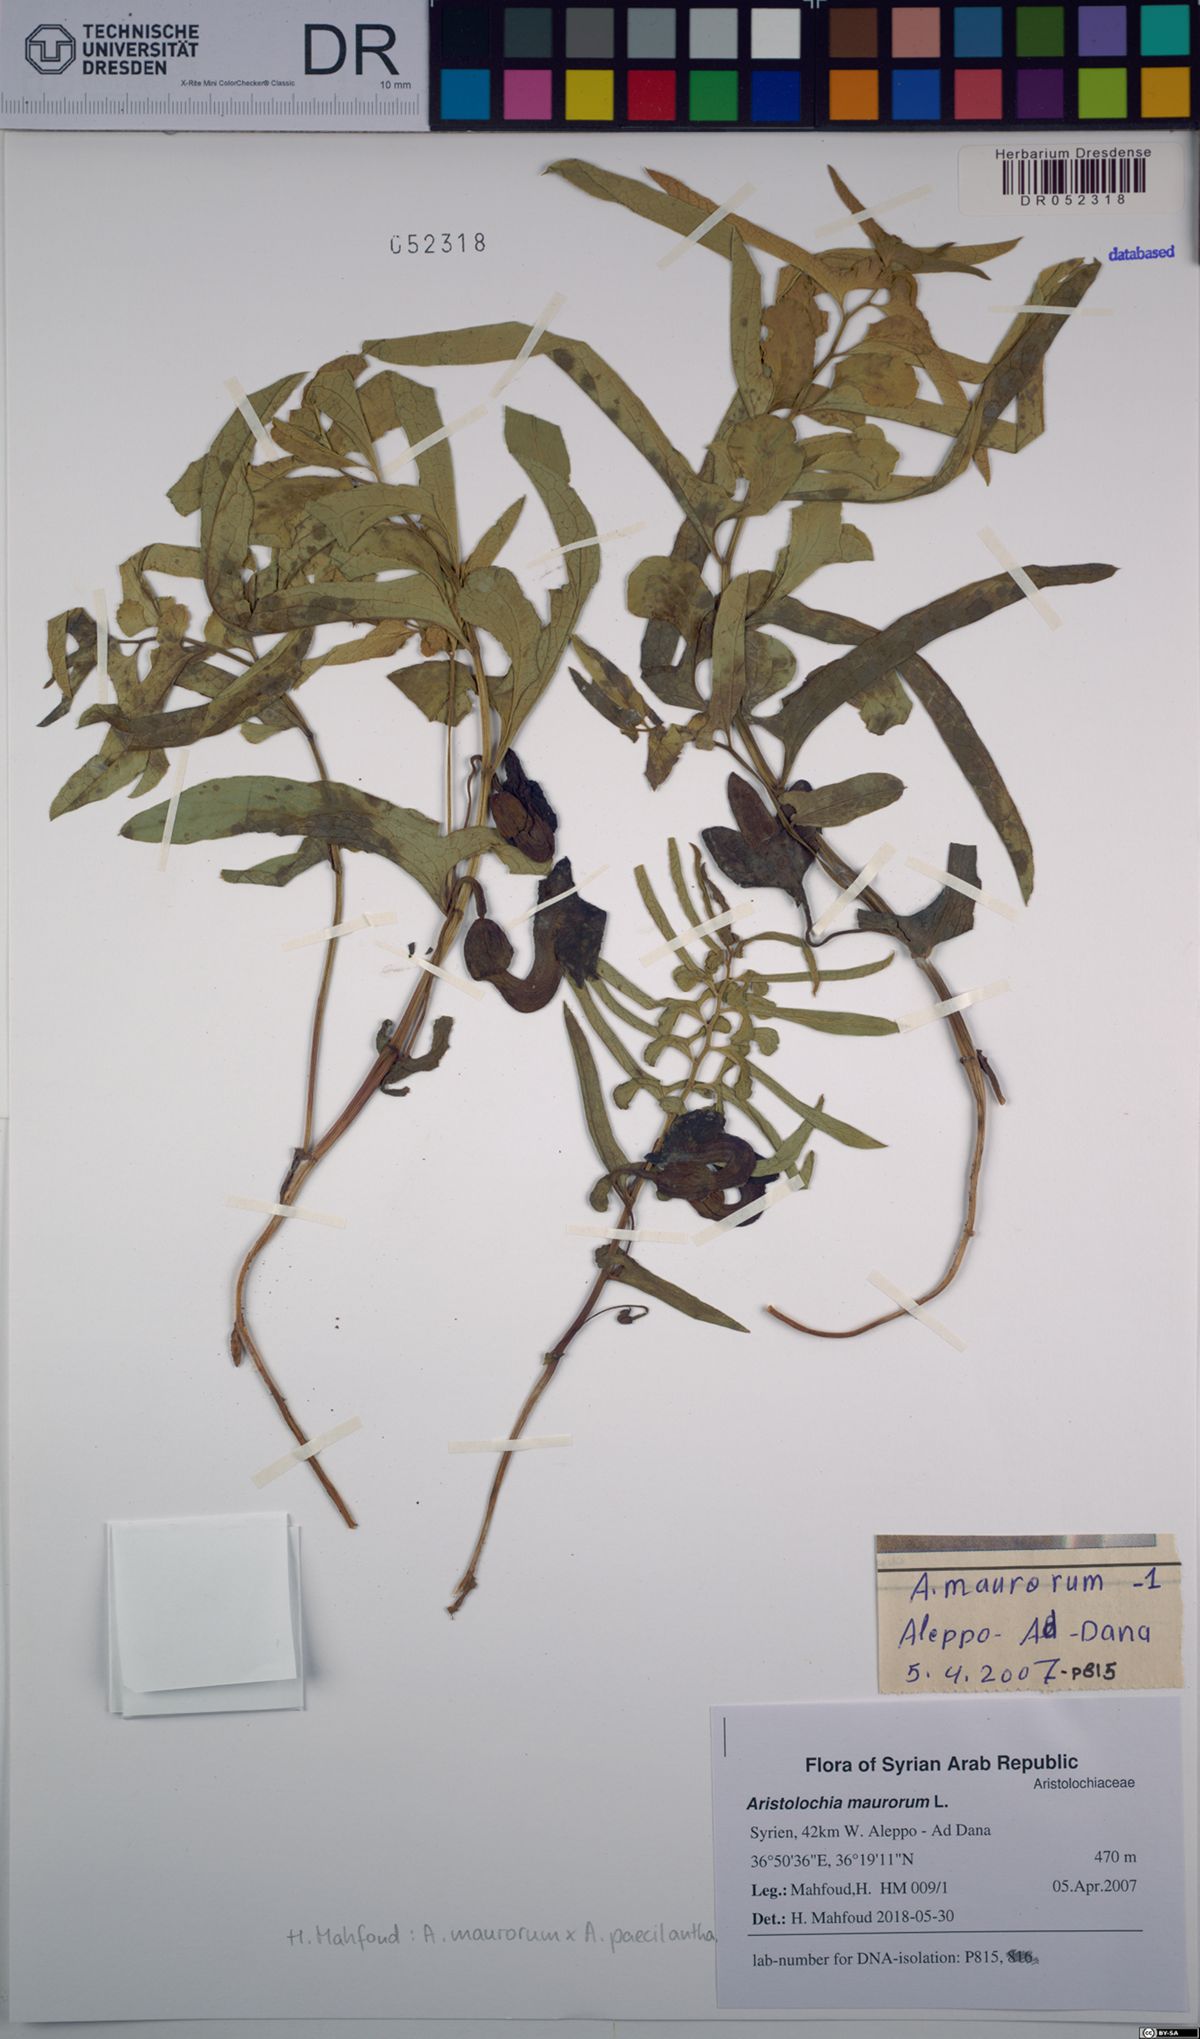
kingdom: Plantae
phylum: Tracheophyta
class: Magnoliopsida
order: Piperales
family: Aristolochiaceae
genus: Aristolochia
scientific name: Aristolochia maurorum
